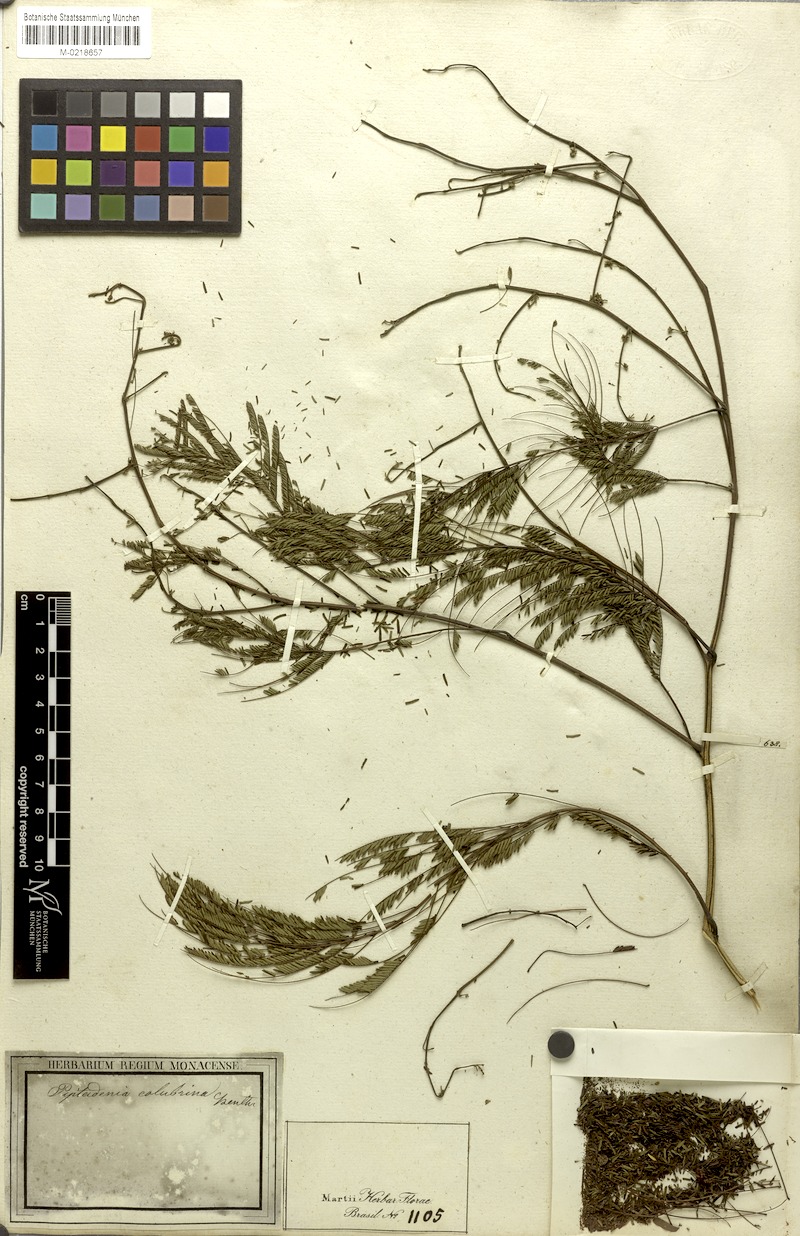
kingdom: Plantae
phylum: Tracheophyta
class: Magnoliopsida
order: Fabales
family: Fabaceae
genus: Anadenanthera
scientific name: Anadenanthera colubrina
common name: Curupay
